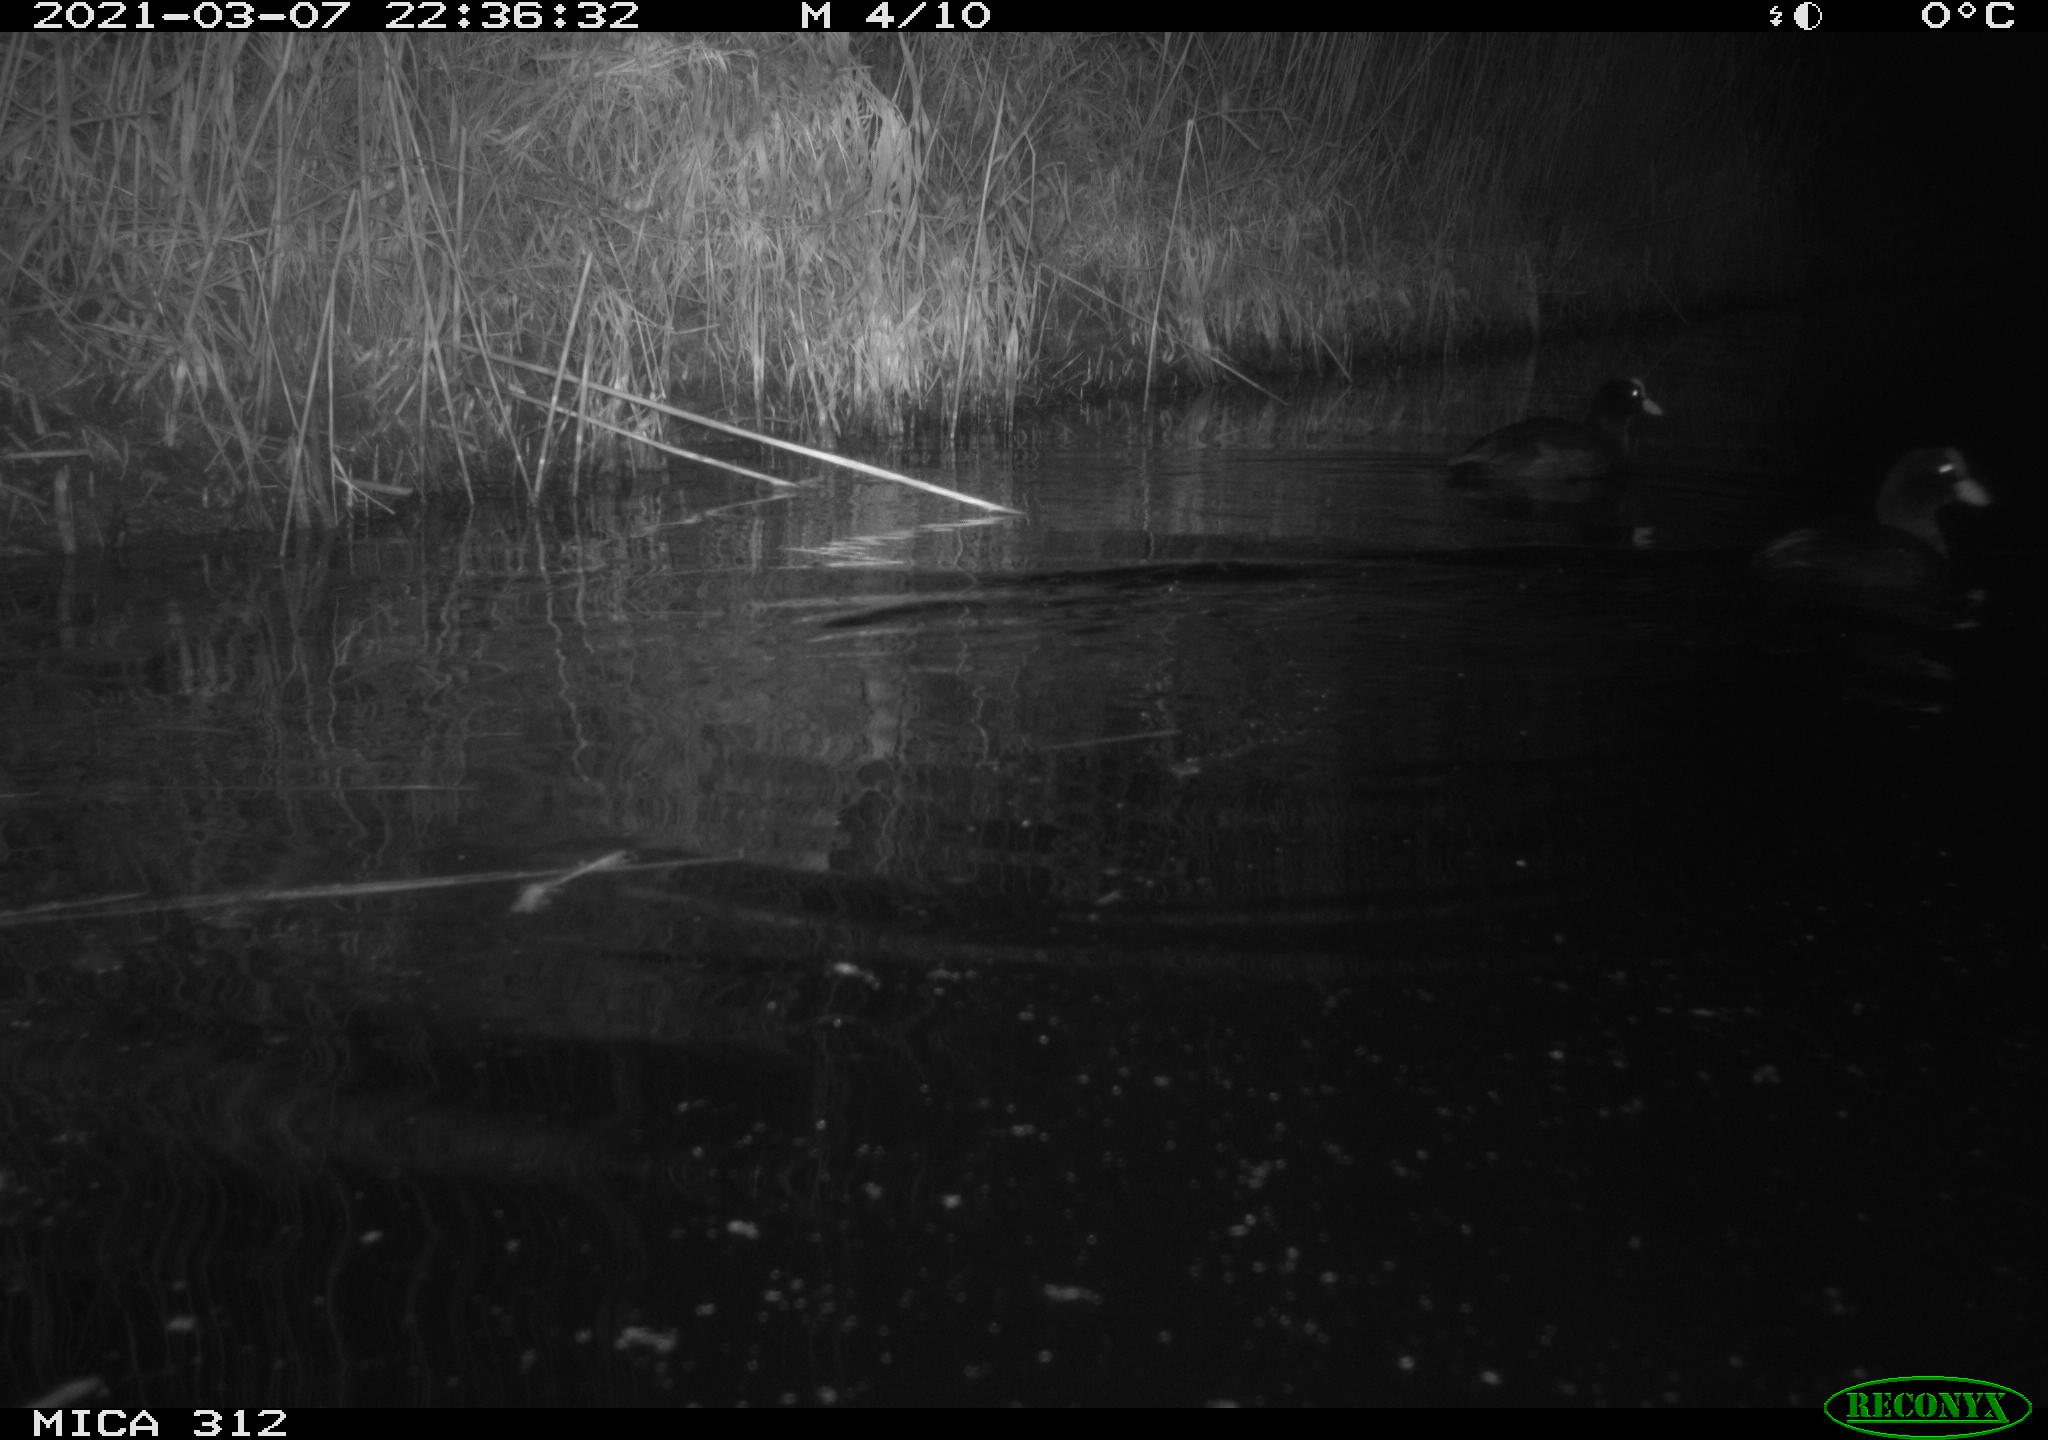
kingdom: Animalia
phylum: Chordata
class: Aves
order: Gruiformes
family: Rallidae
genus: Fulica
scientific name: Fulica atra
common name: Eurasian coot
